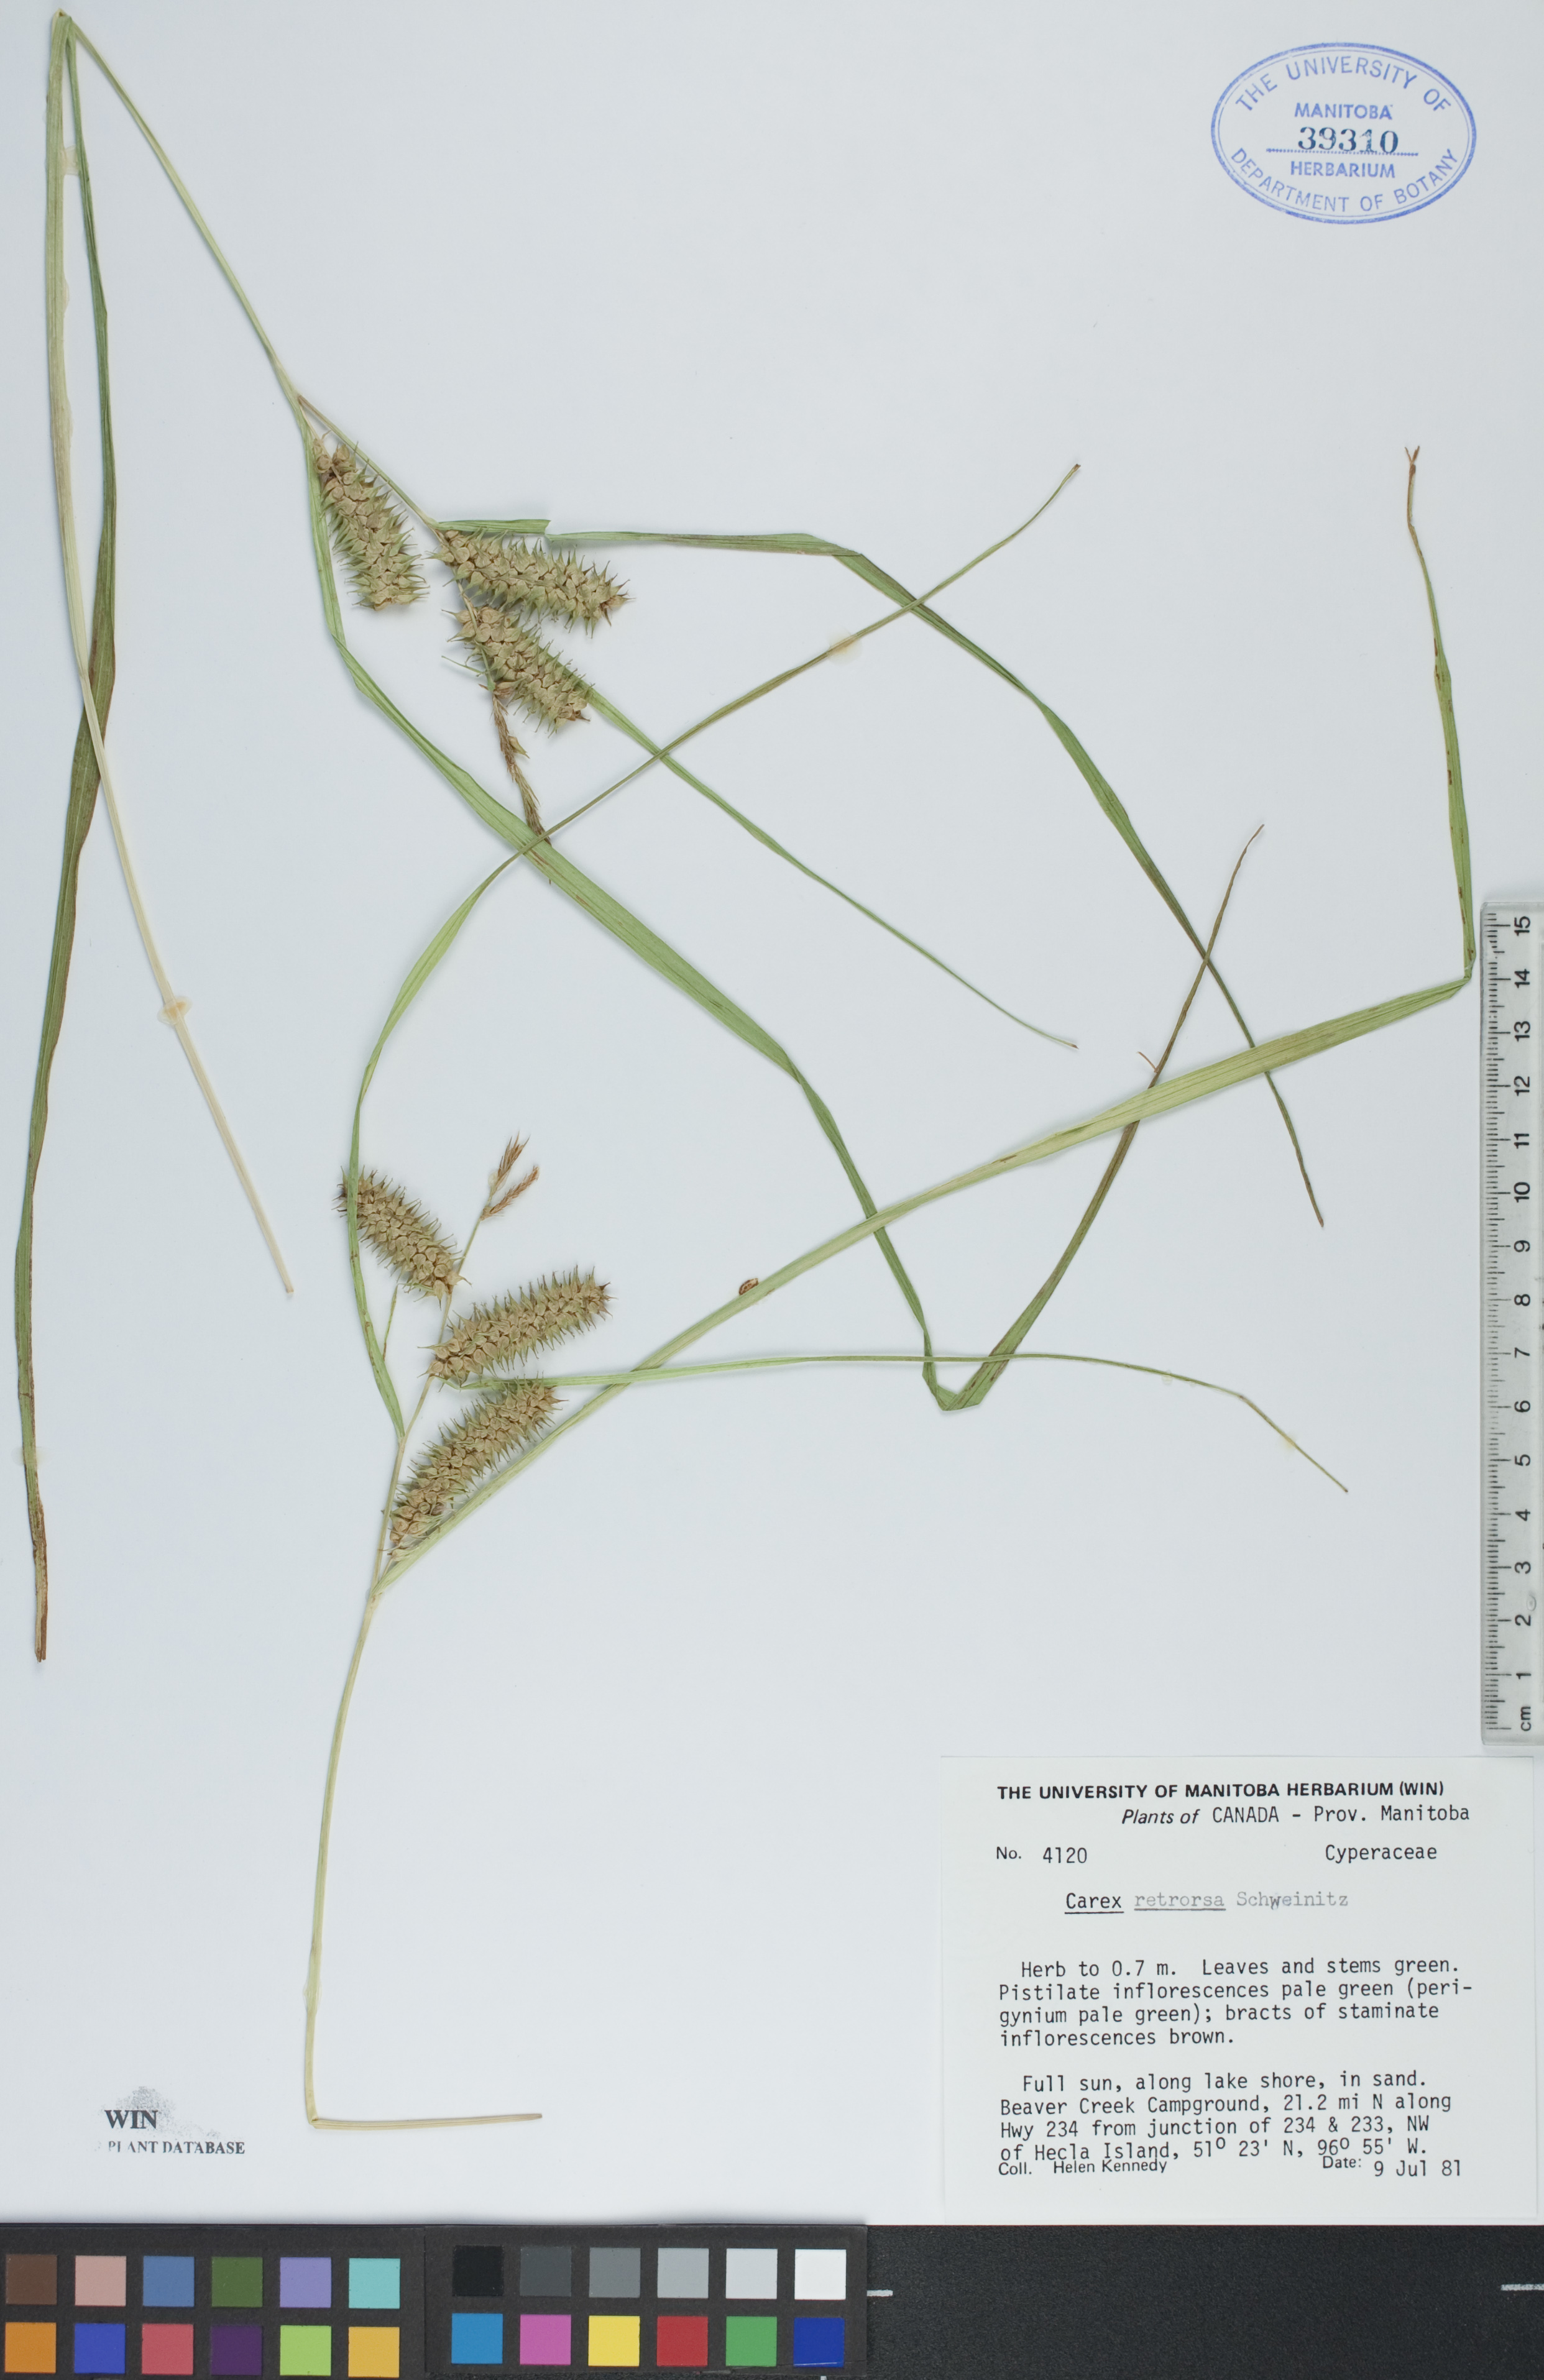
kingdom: Plantae
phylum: Tracheophyta
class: Liliopsida
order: Poales
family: Cyperaceae
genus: Carex
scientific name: Carex retrorsa
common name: Knot-sheath sedge
